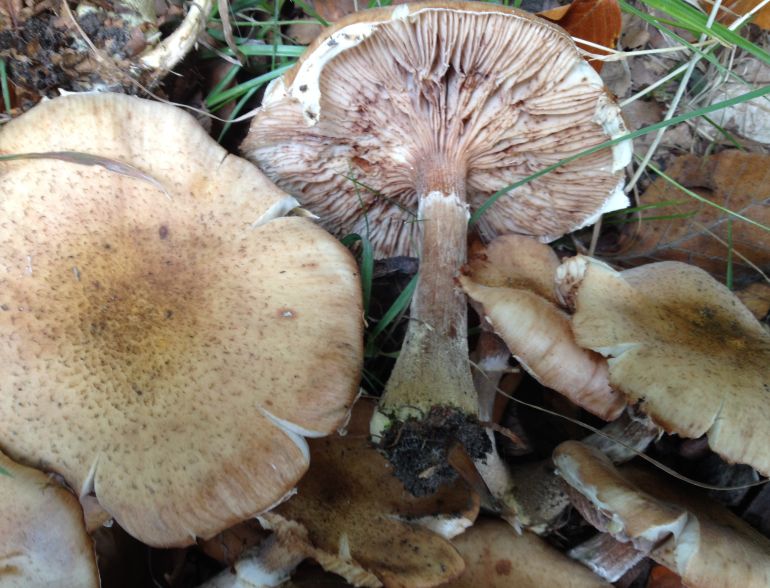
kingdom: Fungi
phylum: Basidiomycota
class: Agaricomycetes
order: Agaricales
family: Physalacriaceae
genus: Armillaria
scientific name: Armillaria lutea
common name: køllestokket honningsvamp
